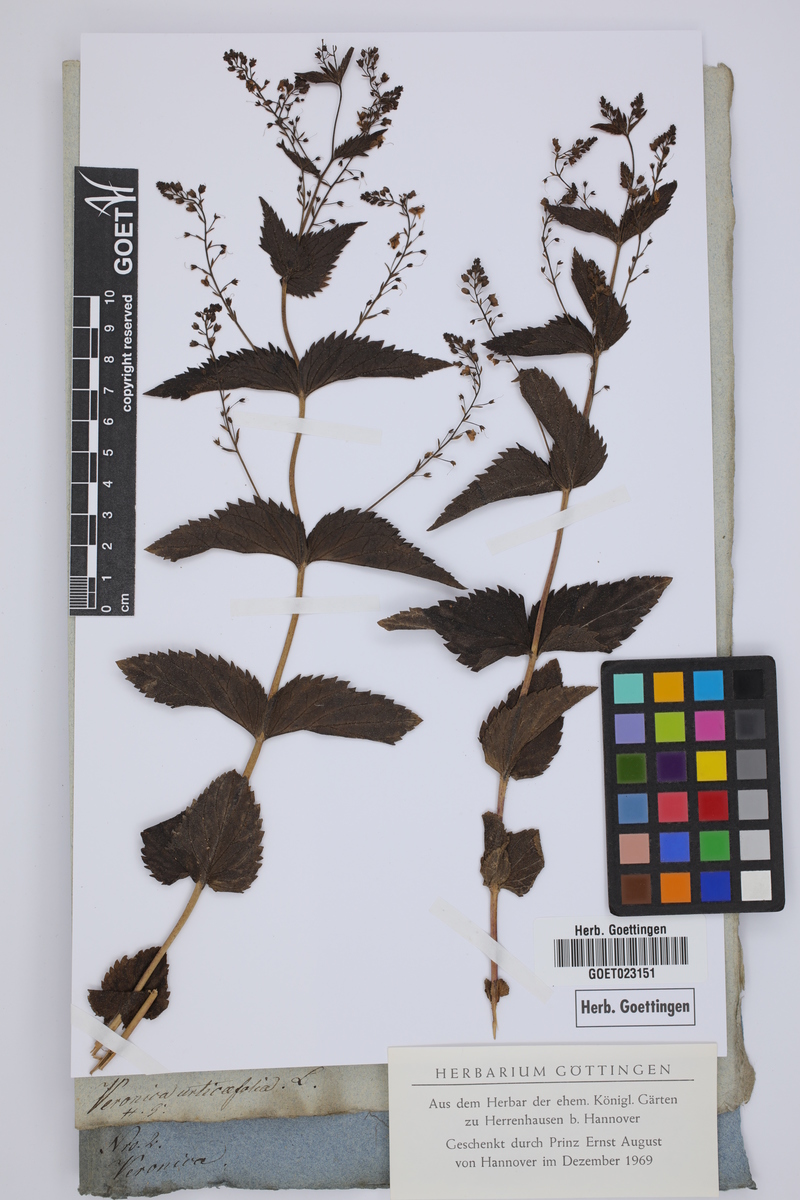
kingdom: Plantae
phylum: Tracheophyta
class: Magnoliopsida
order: Lamiales
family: Plantaginaceae
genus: Veronica
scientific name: Veronica urticifolia
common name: Nettle-leaf speedwell
